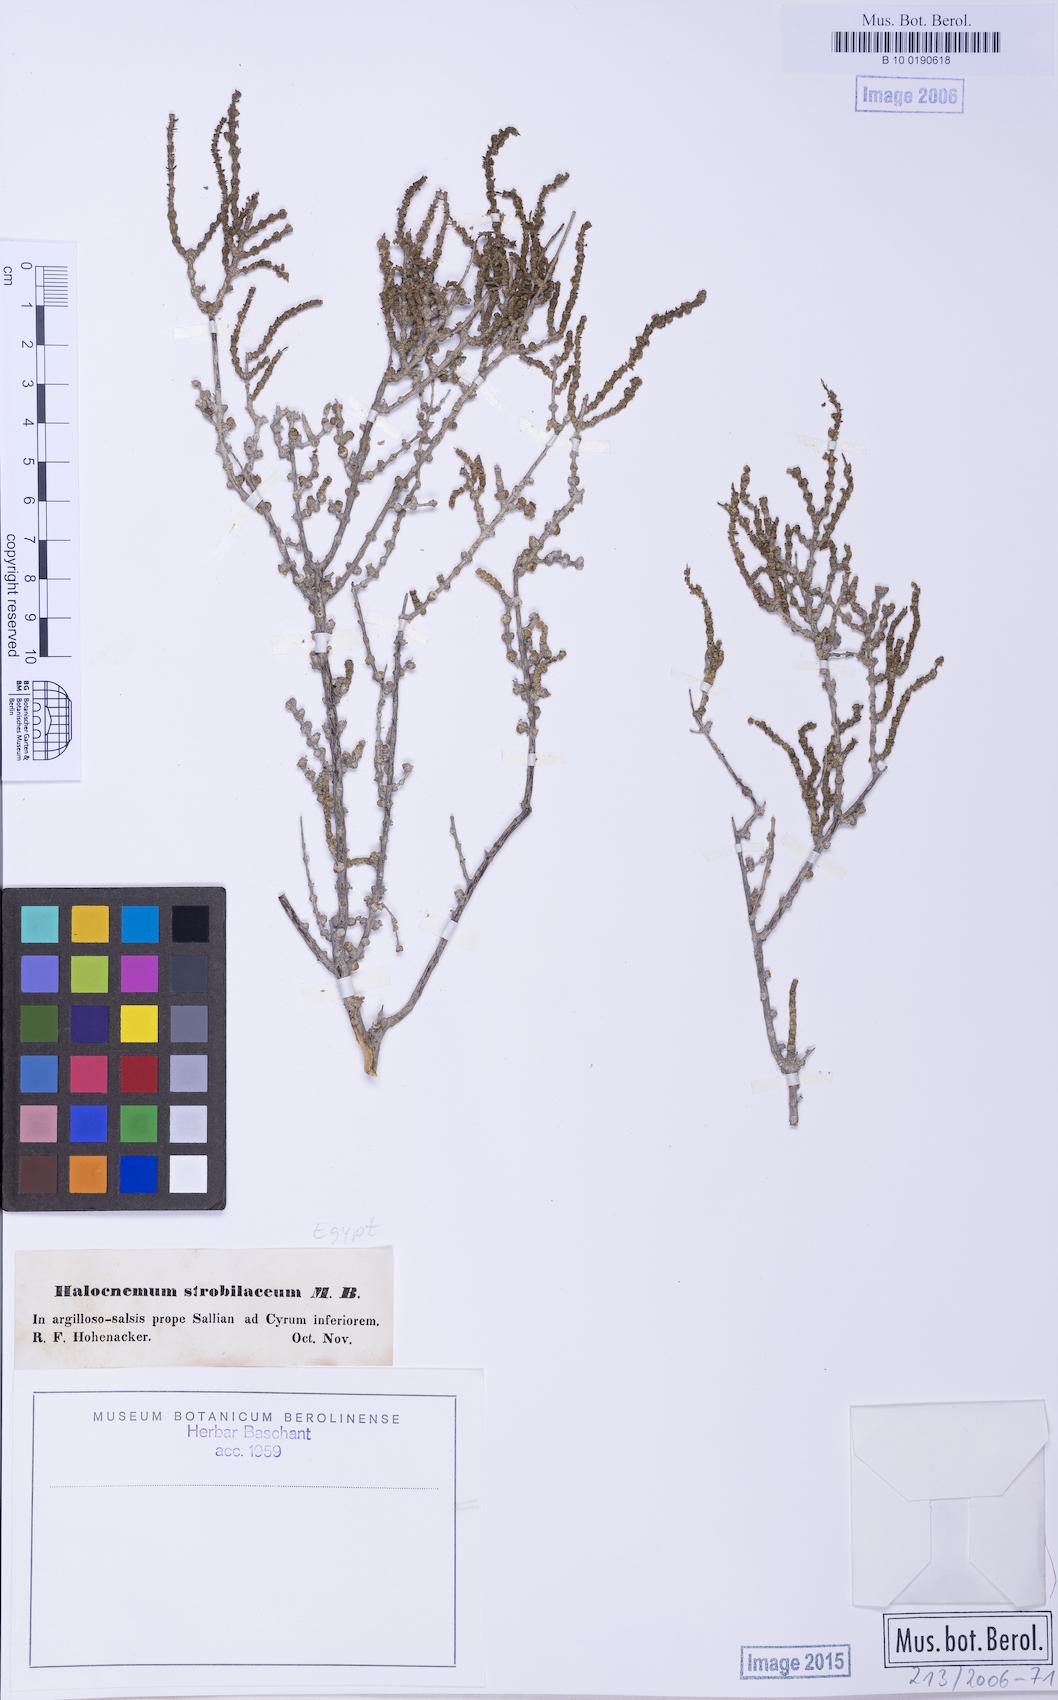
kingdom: Plantae
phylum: Tracheophyta
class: Magnoliopsida
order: Caryophyllales
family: Amaranthaceae
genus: Halocnemum
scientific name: Halocnemum strobilaceum
